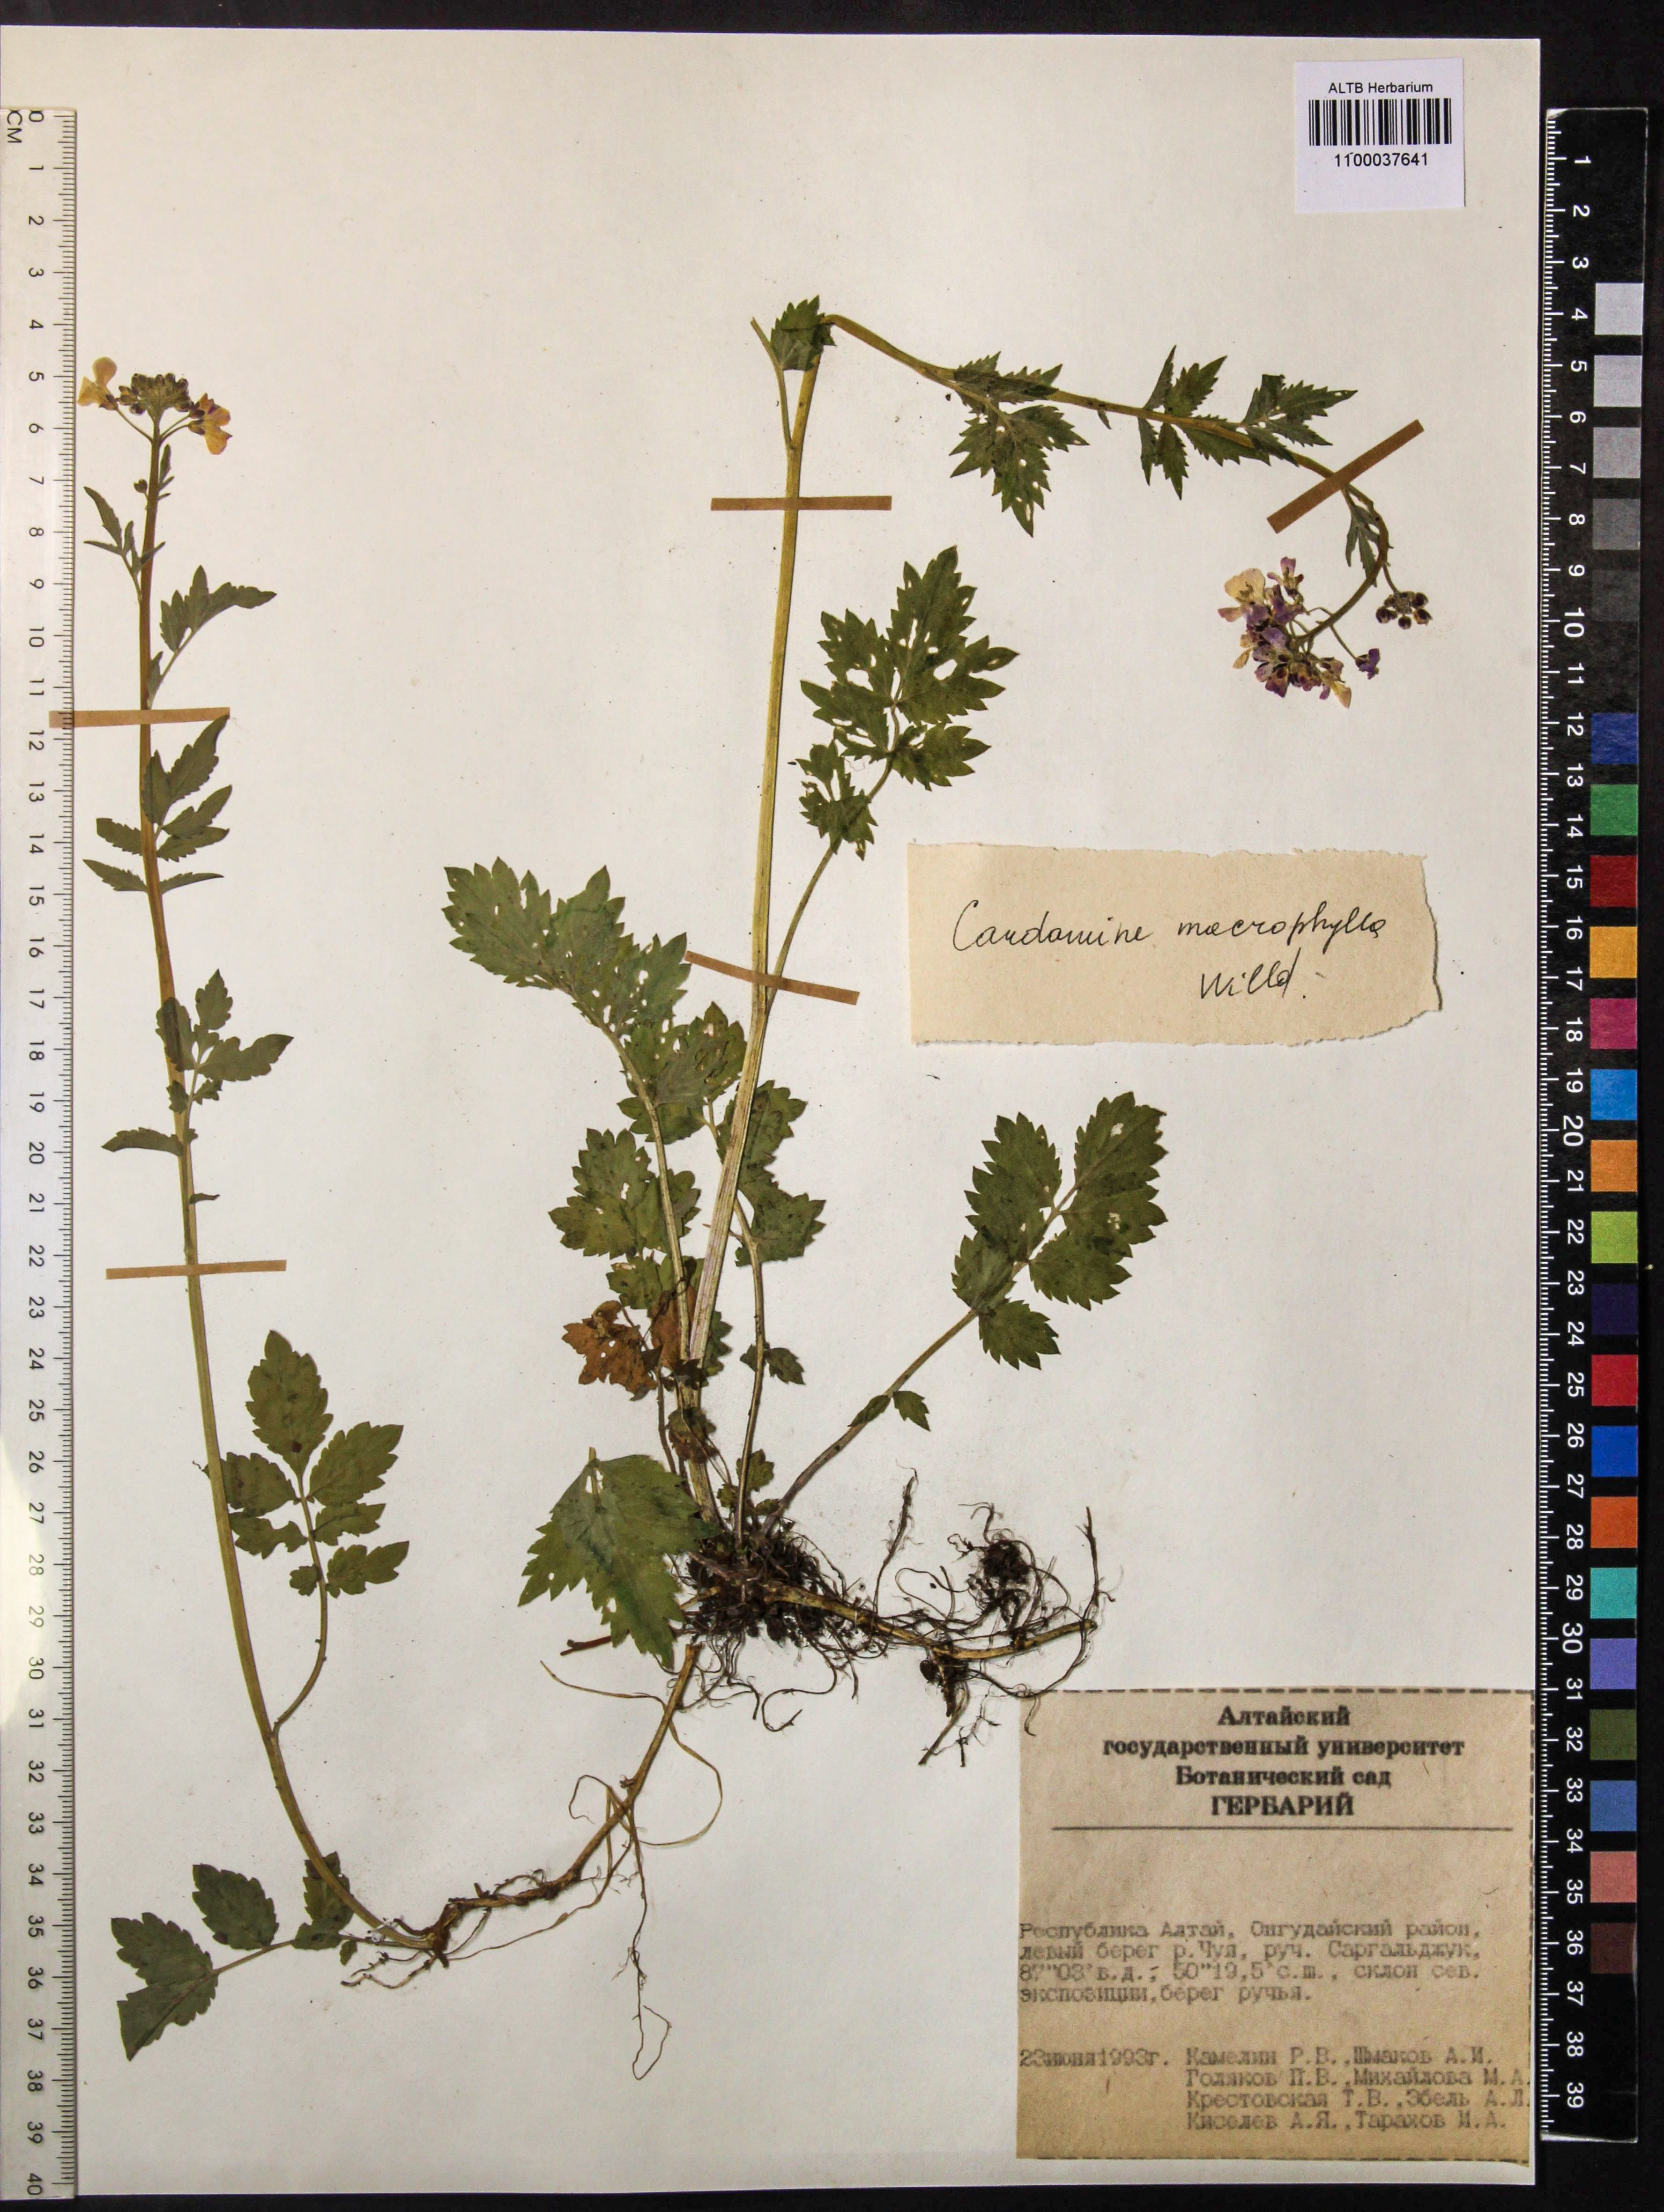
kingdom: Plantae
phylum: Tracheophyta
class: Magnoliopsida
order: Brassicales
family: Brassicaceae
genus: Cardamine
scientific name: Cardamine macrophylla
